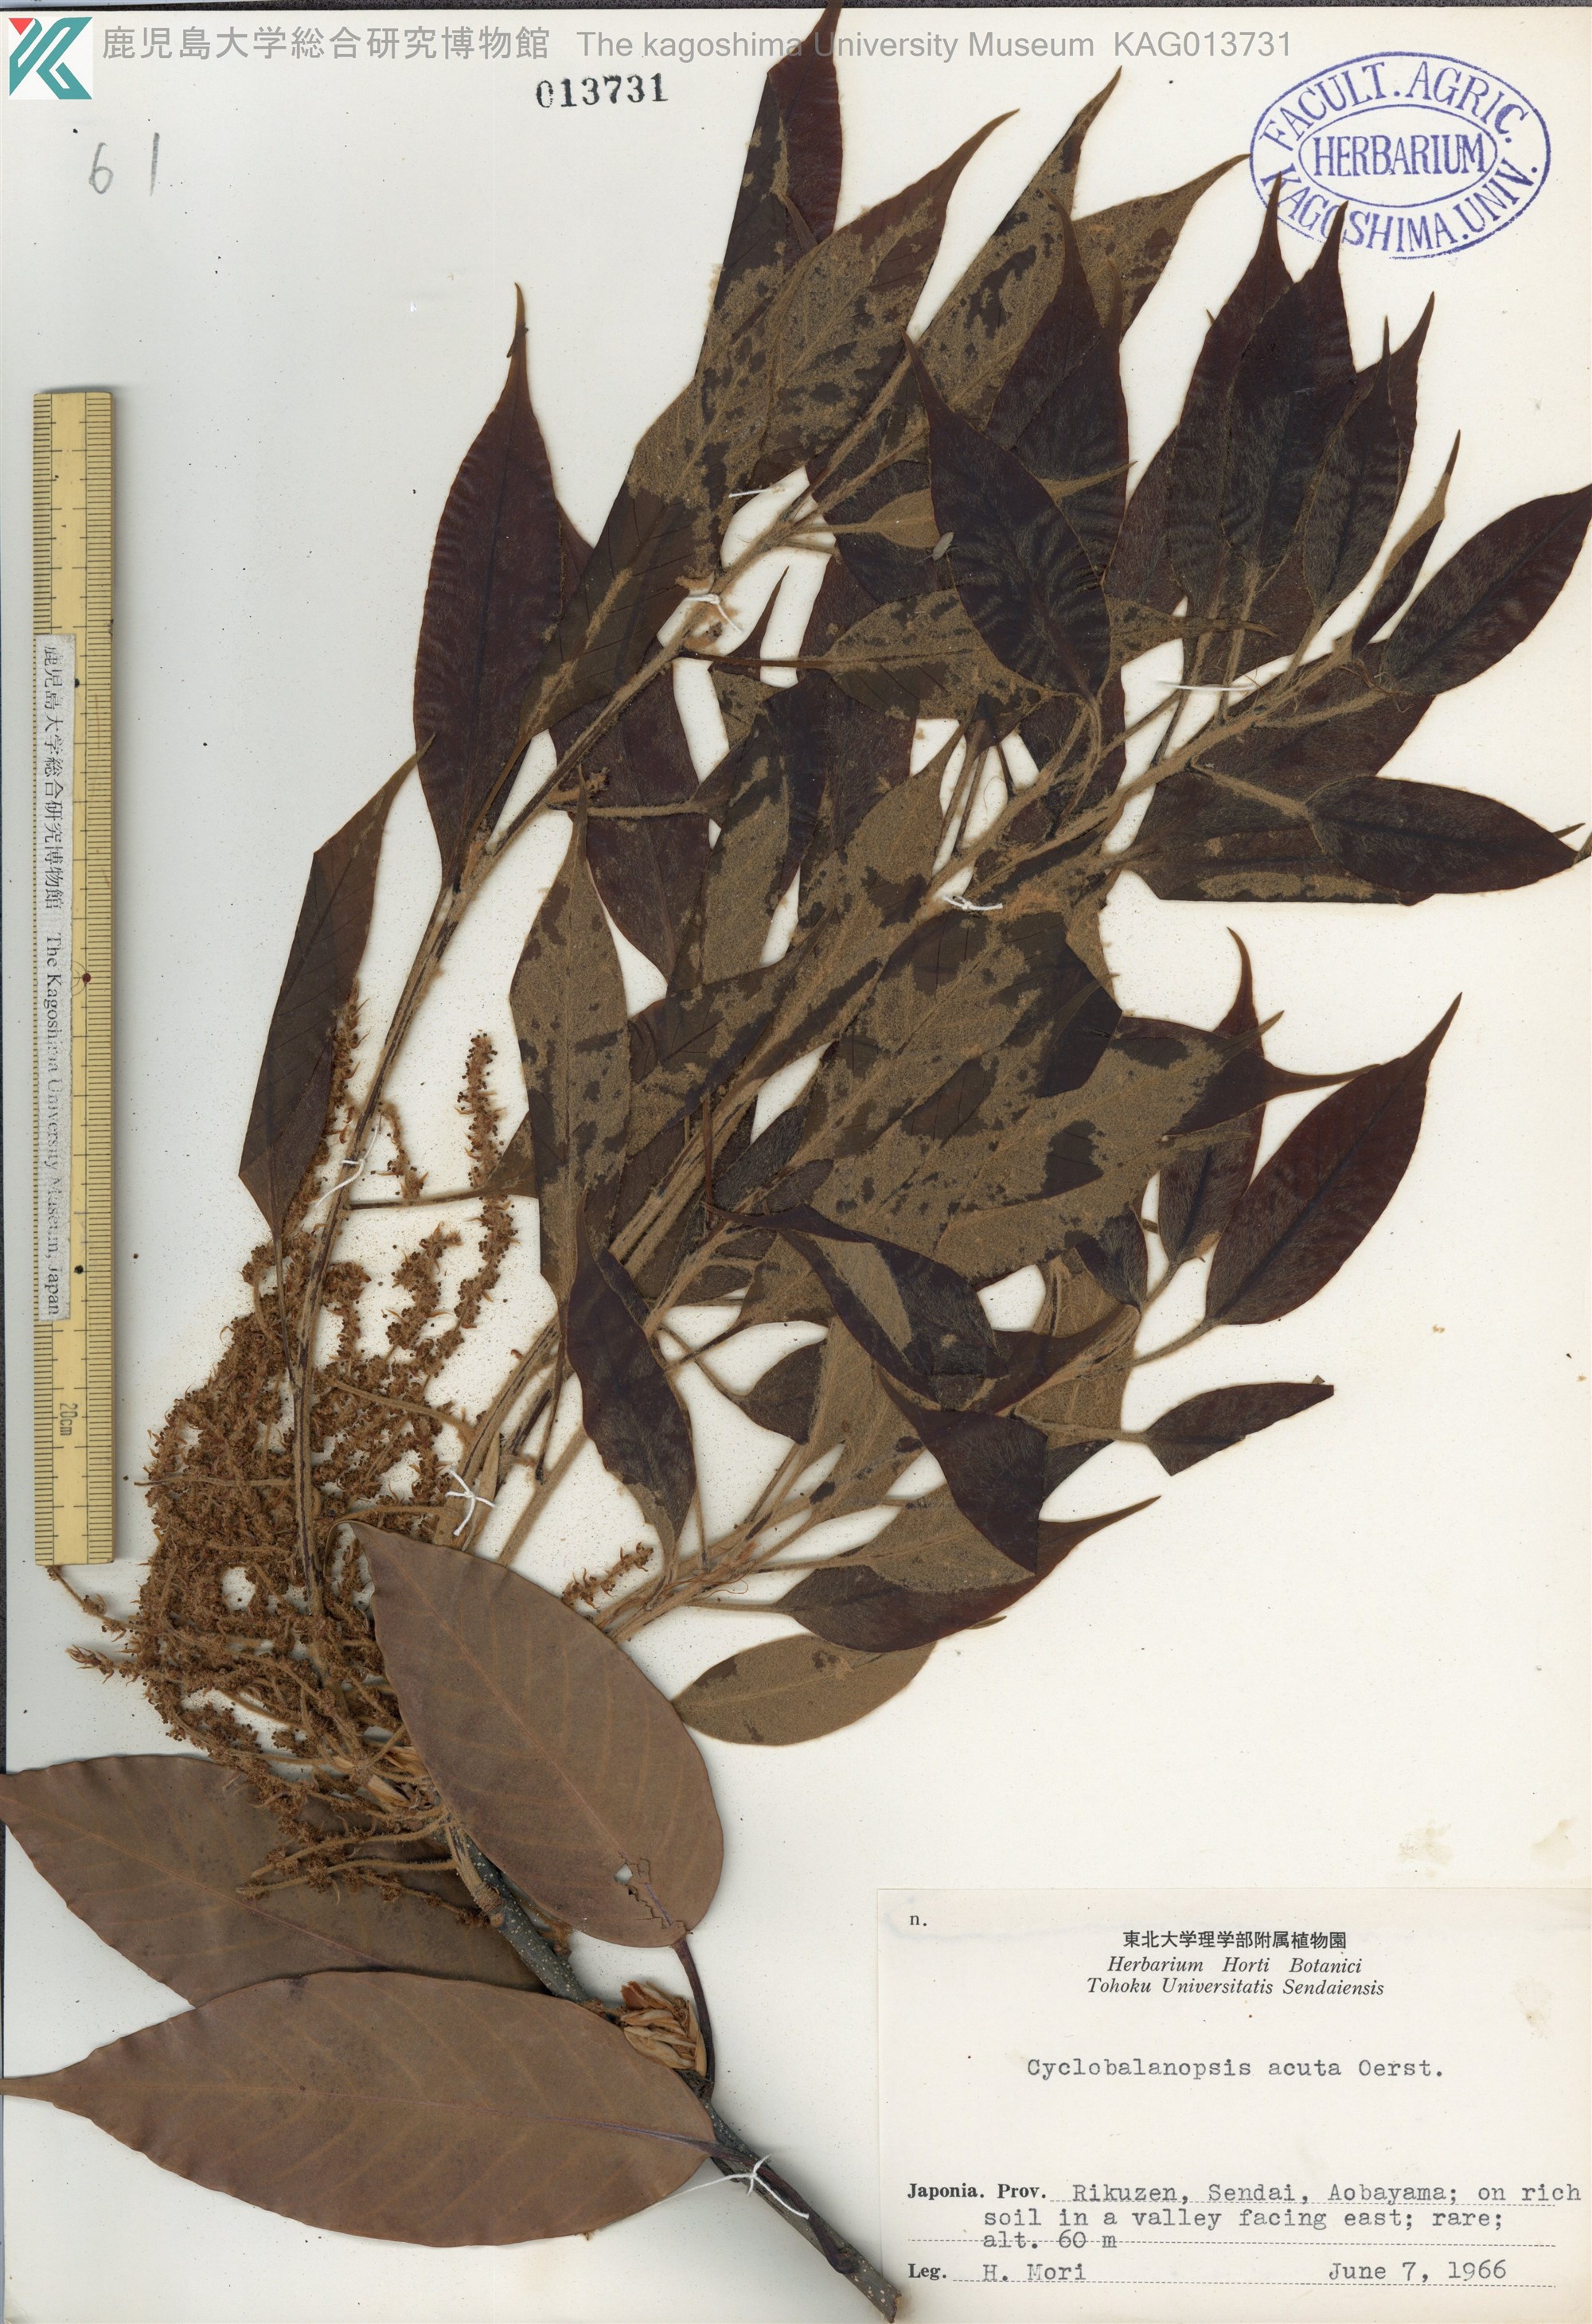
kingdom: Plantae
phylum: Tracheophyta
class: Magnoliopsida
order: Fagales
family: Fagaceae
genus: Quercus
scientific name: Quercus acuta
